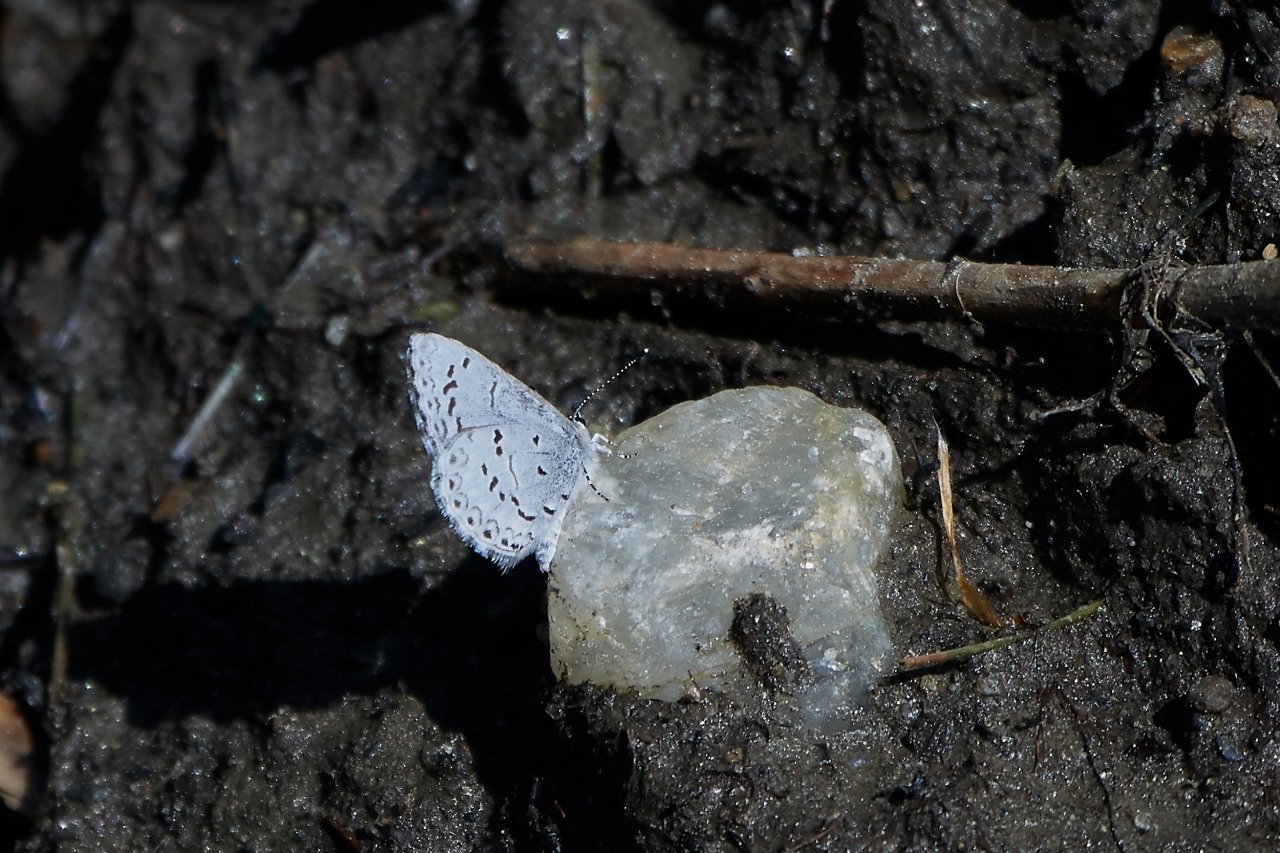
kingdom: Animalia
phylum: Arthropoda
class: Insecta
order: Lepidoptera
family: Lycaenidae
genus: Celastrina
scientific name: Celastrina
